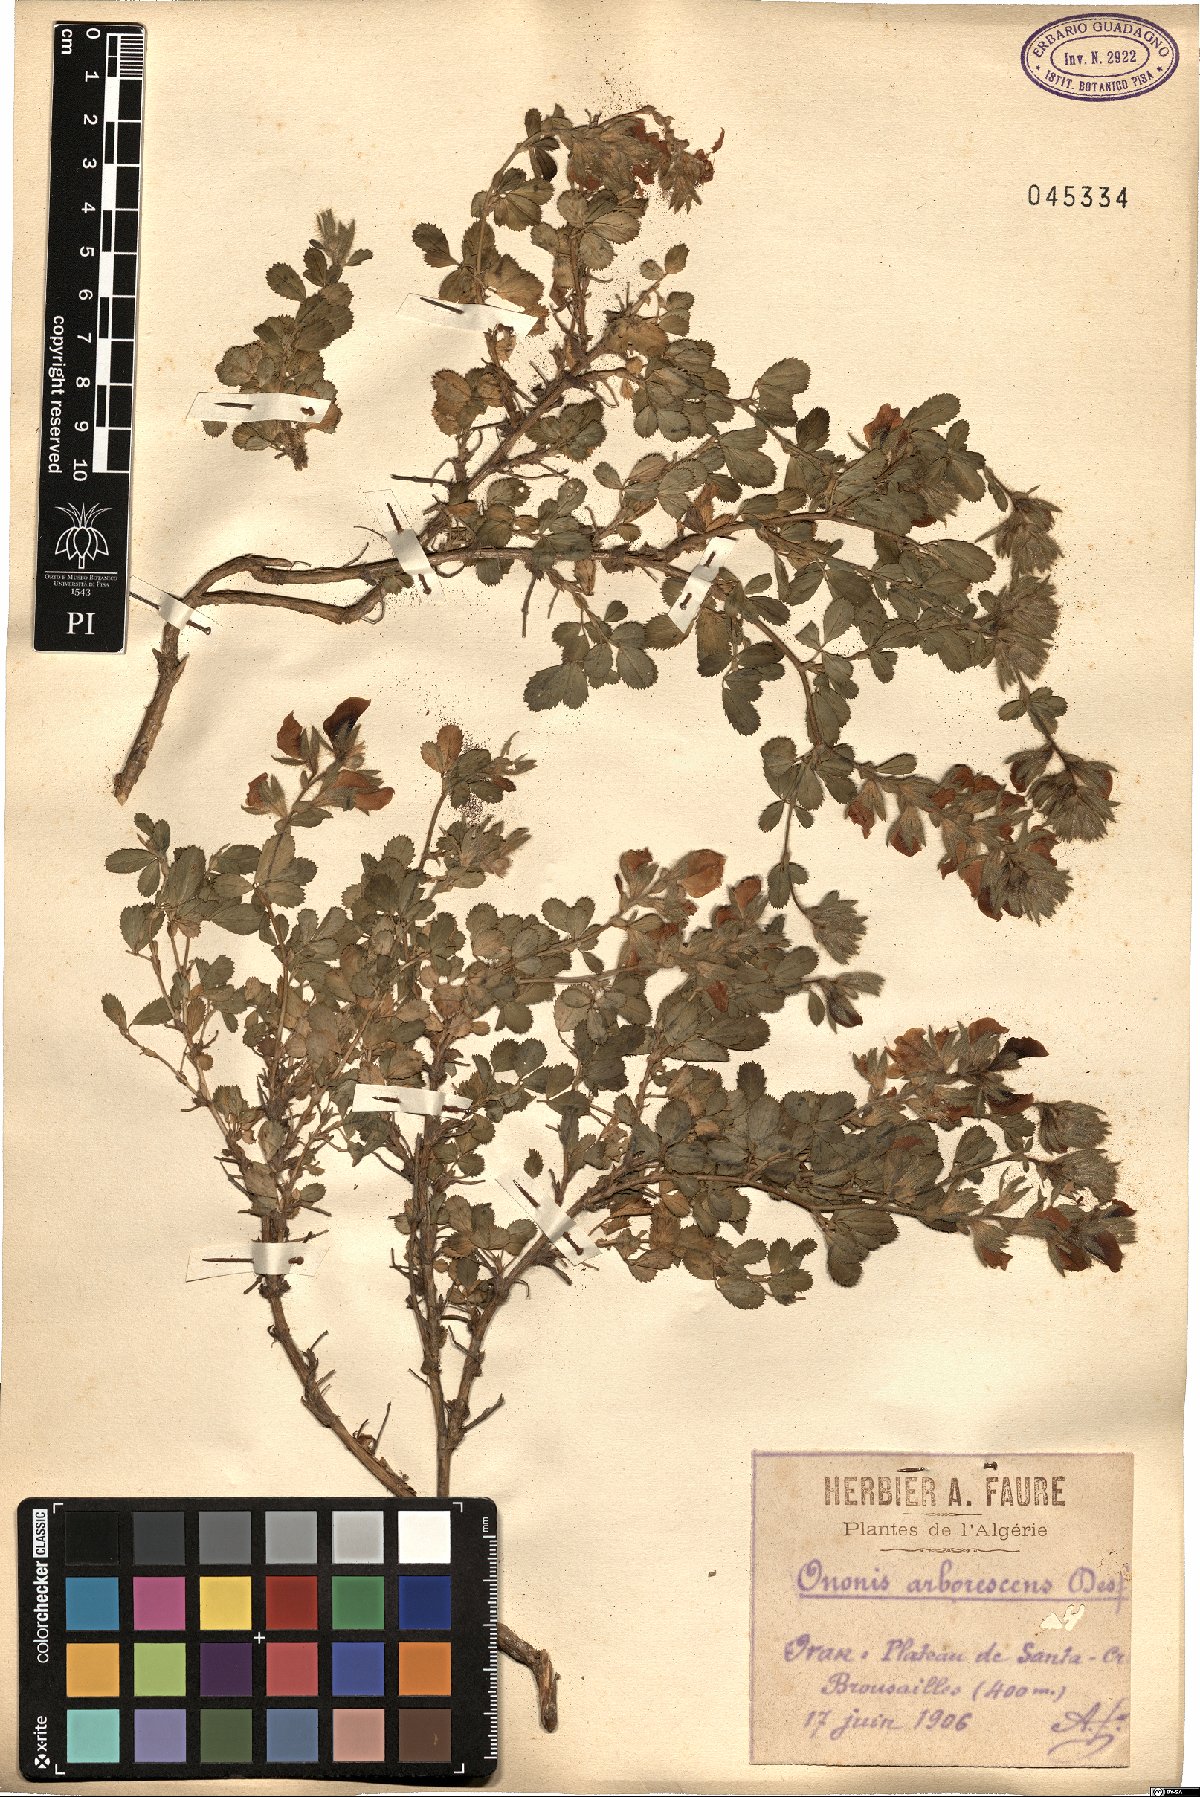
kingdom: Plantae
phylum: Tracheophyta
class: Magnoliopsida
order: Fabales
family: Fabaceae
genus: Ononis
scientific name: Ononis hispida
